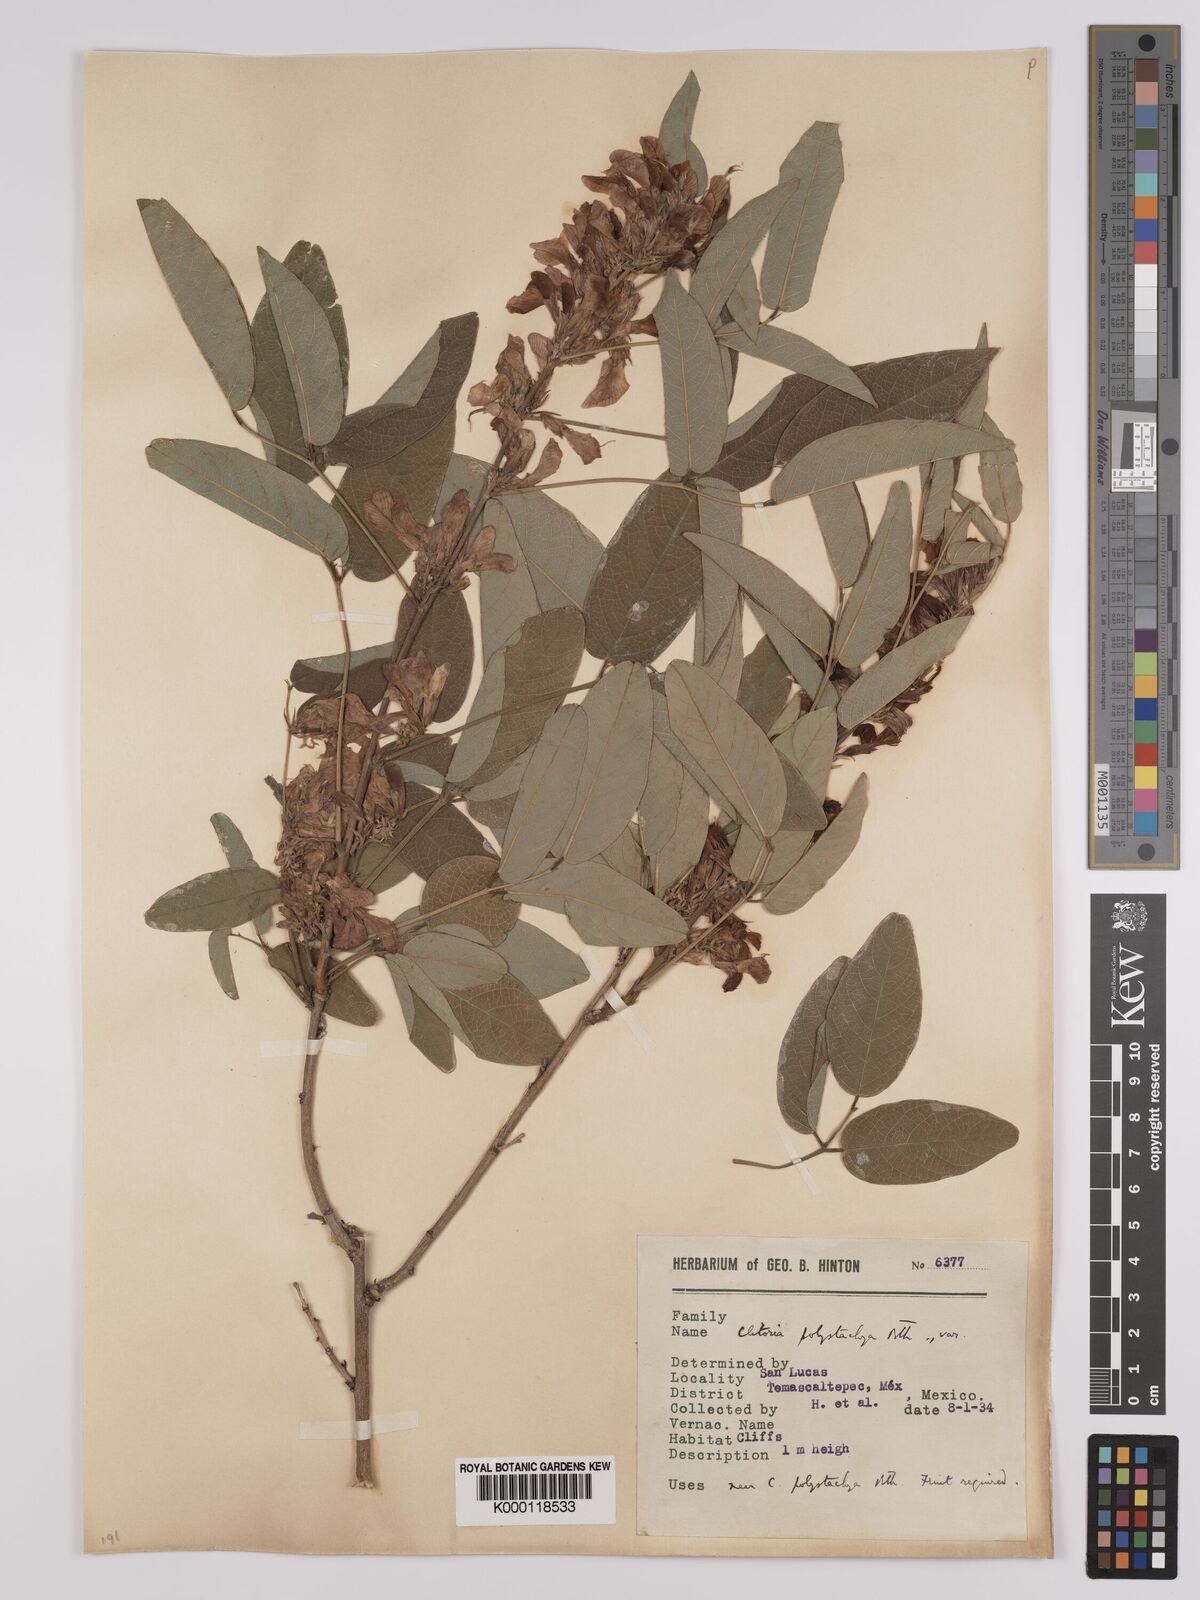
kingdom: Plantae
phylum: Tracheophyta
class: Magnoliopsida
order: Fabales
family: Fabaceae
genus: Clitoria
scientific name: Clitoria polystachya
